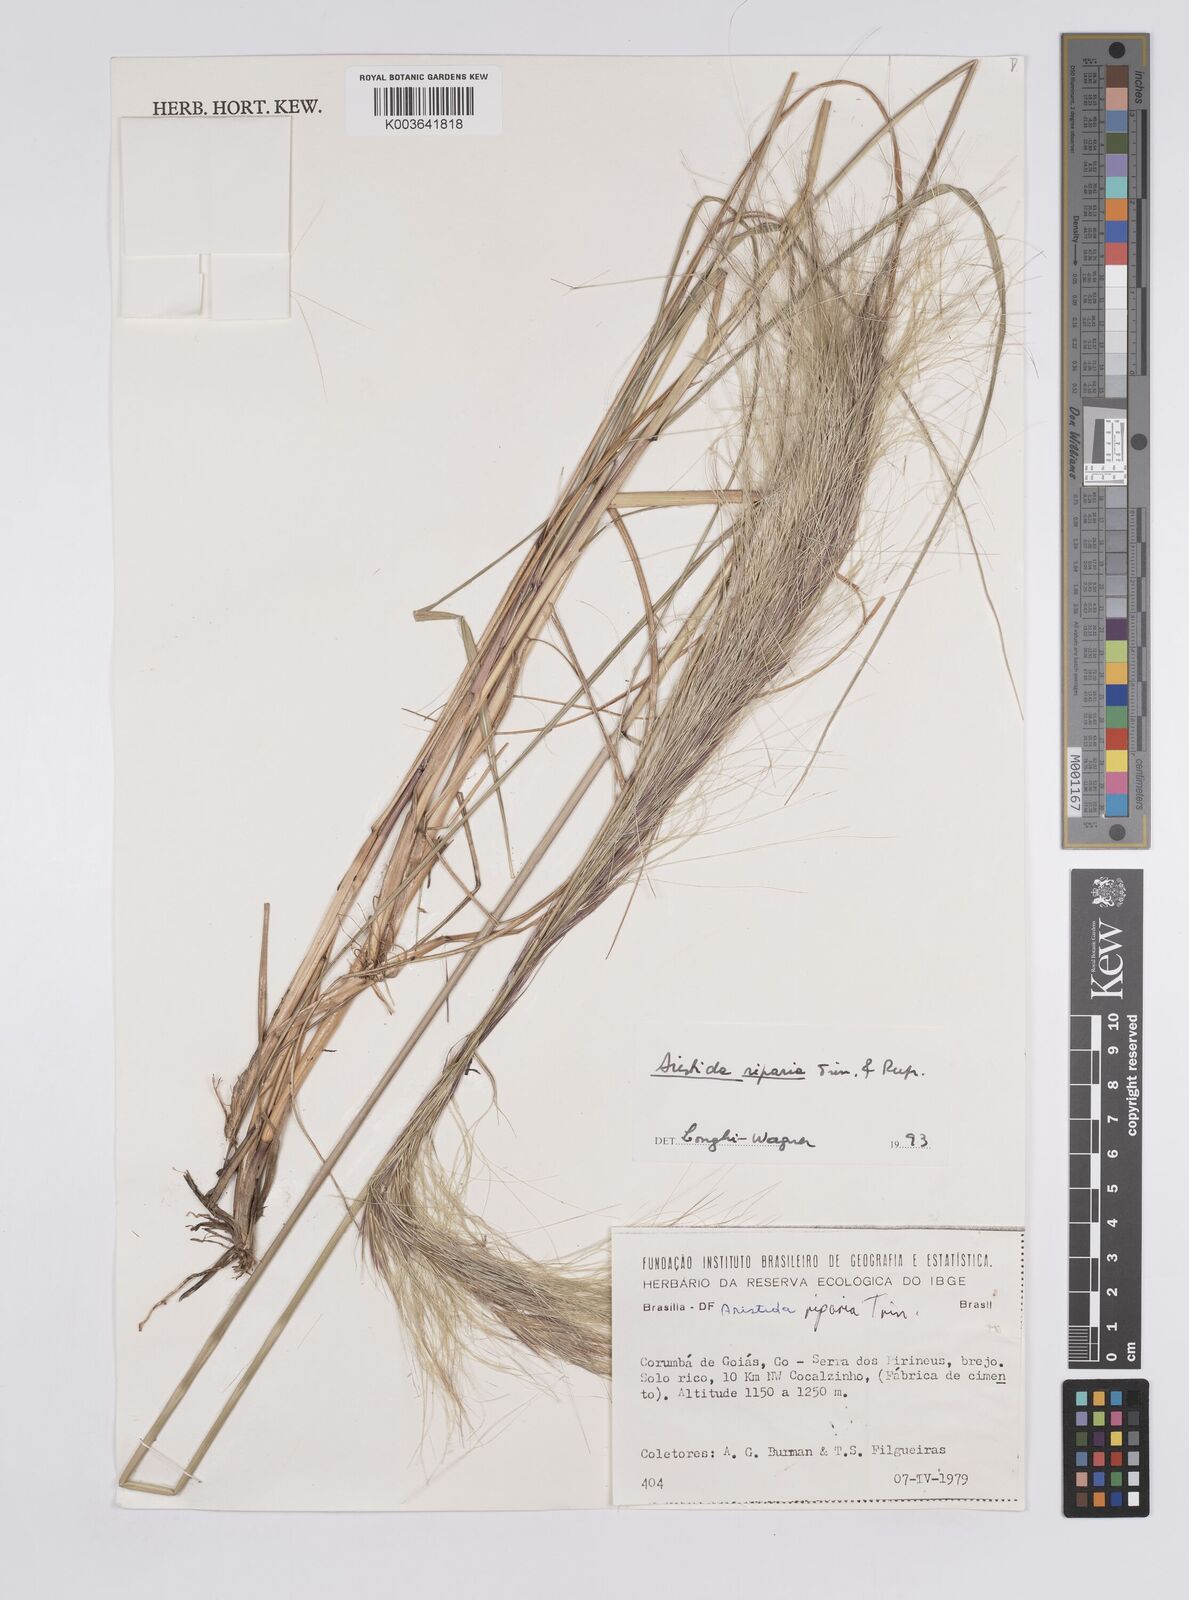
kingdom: Plantae
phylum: Tracheophyta
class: Liliopsida
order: Poales
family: Poaceae
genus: Aristida
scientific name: Aristida riparia
